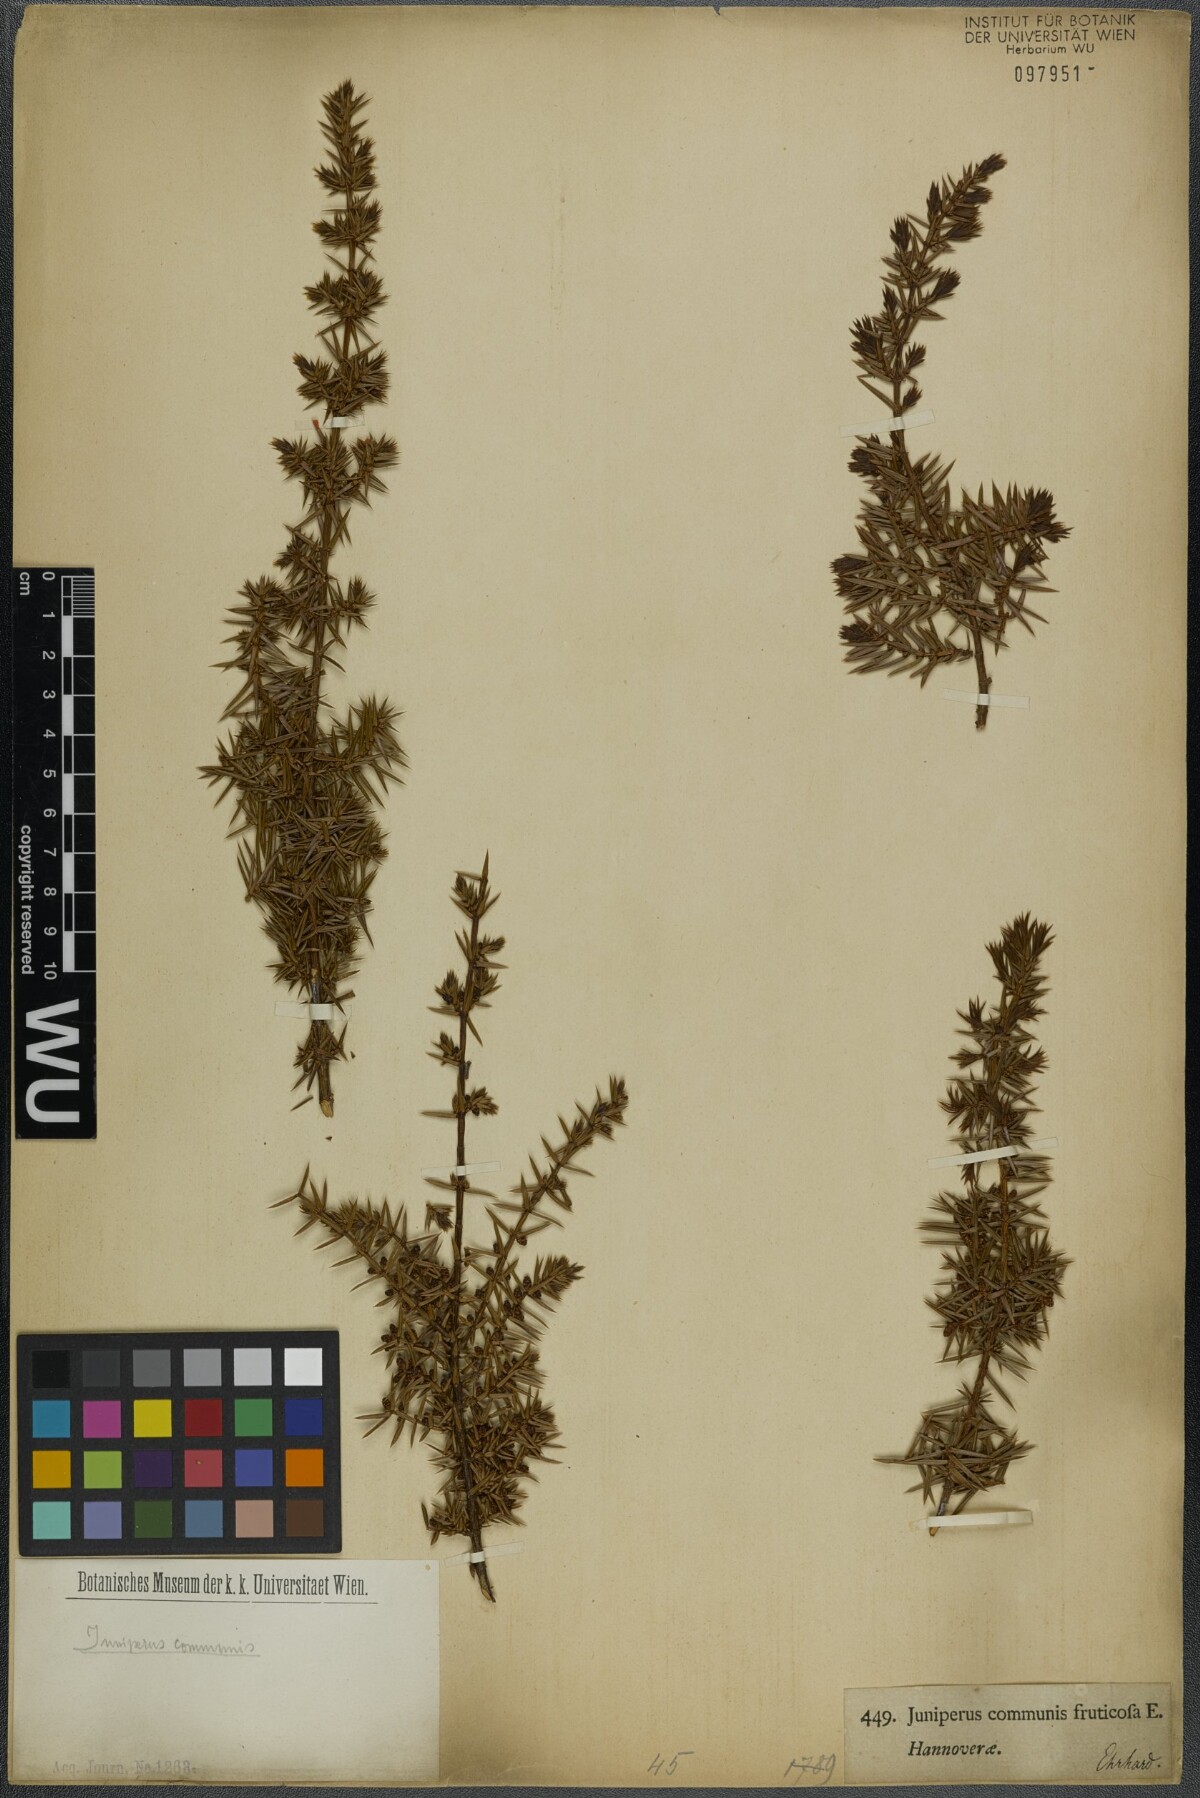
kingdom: Plantae
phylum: Tracheophyta
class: Pinopsida
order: Pinales
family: Cupressaceae
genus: Juniperus
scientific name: Juniperus communis
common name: Common juniper
